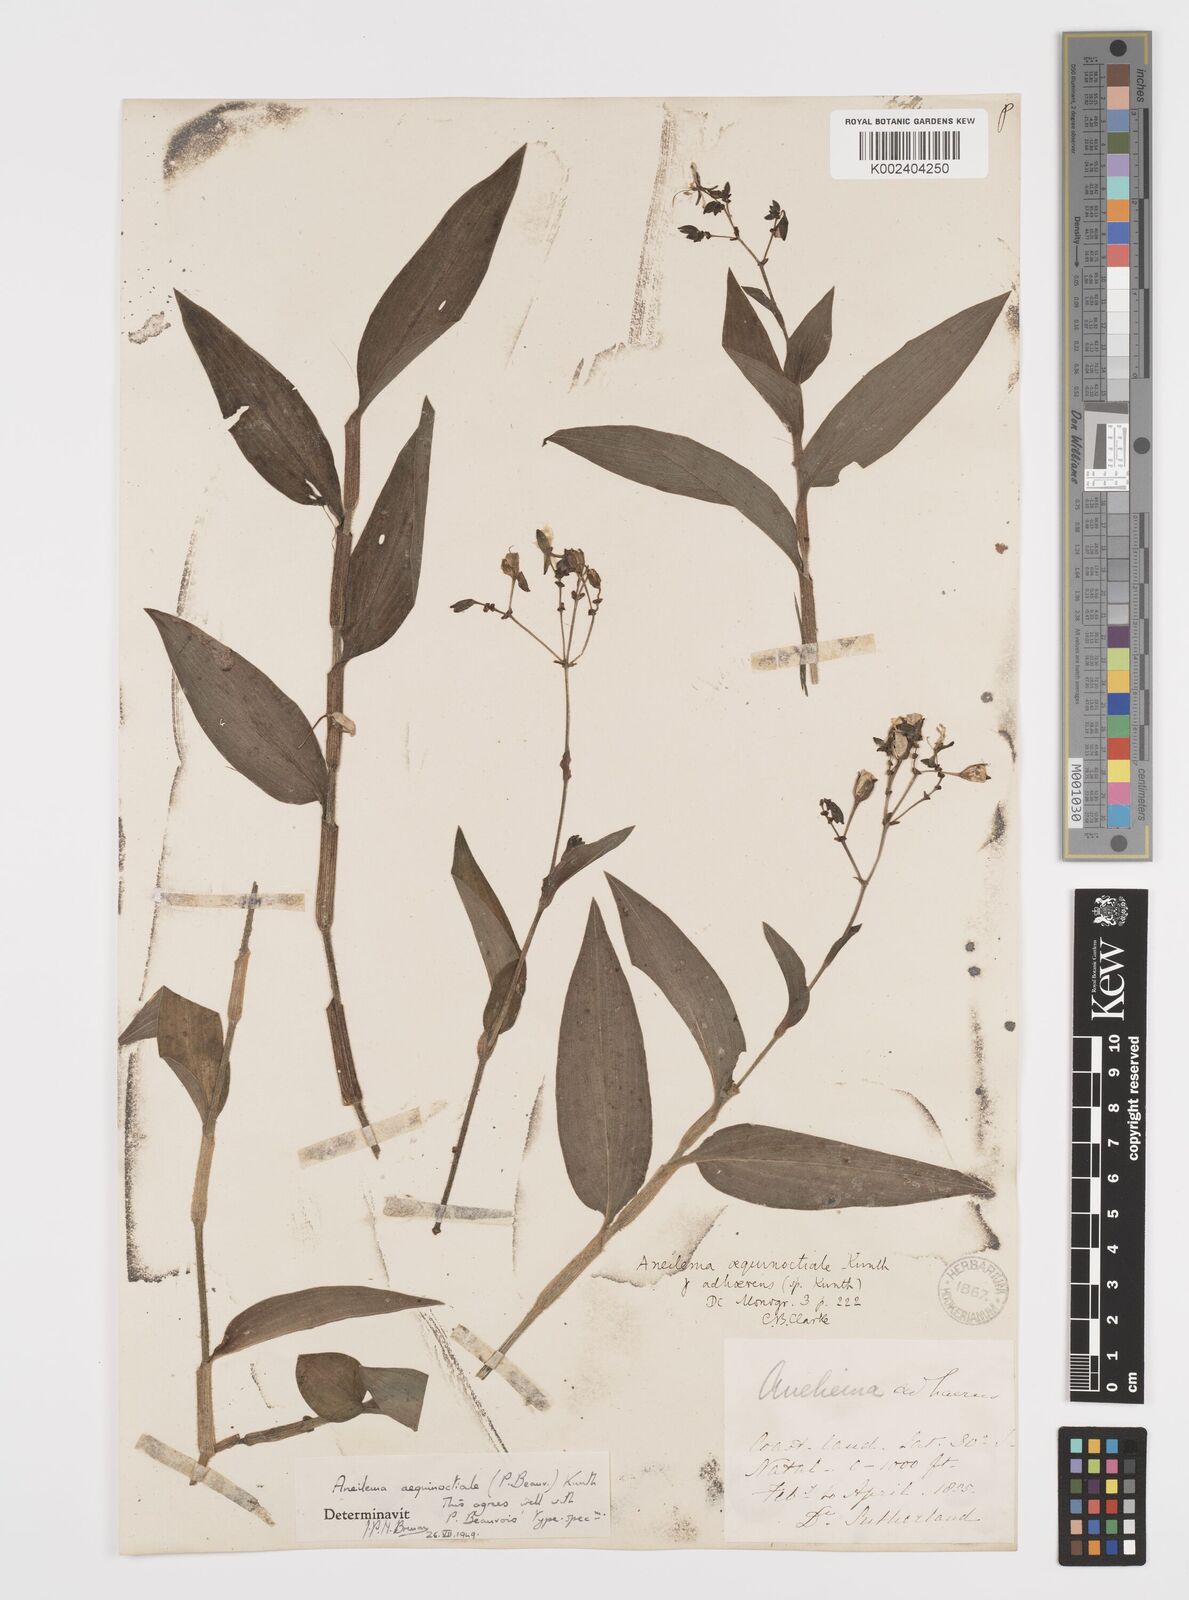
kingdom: Plantae
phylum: Tracheophyta
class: Liliopsida
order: Commelinales
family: Commelinaceae
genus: Aneilema
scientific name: Aneilema aequinoctiale
